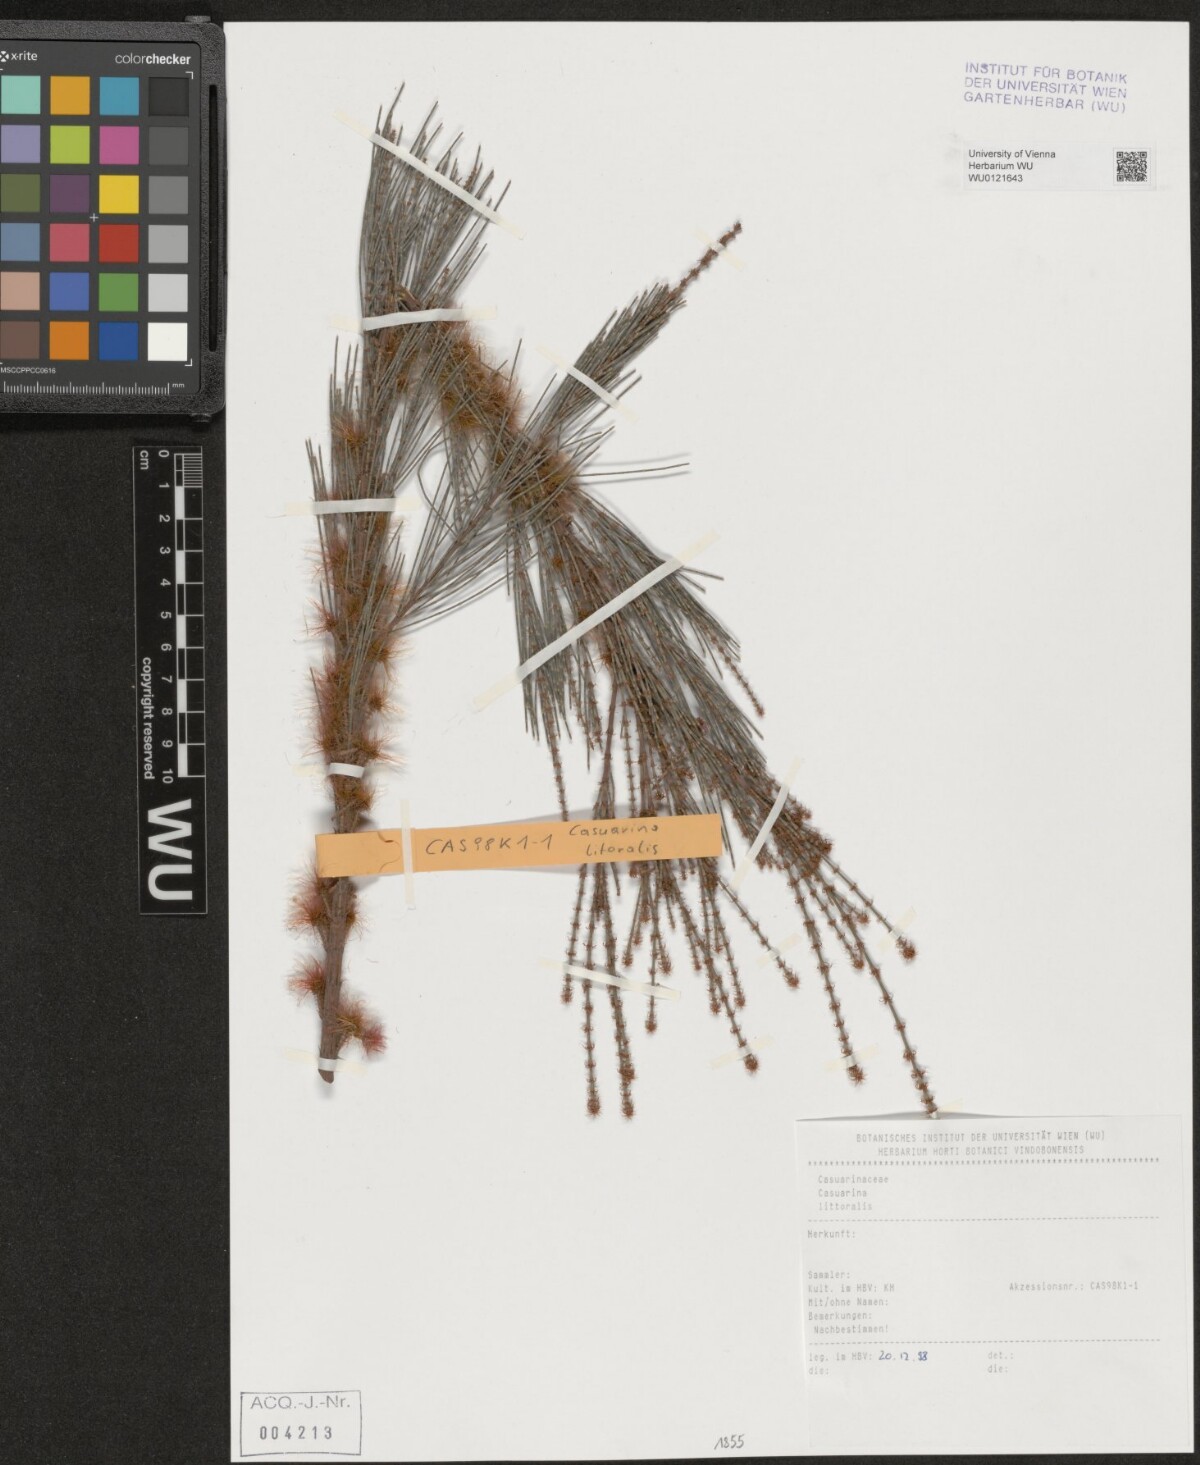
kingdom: Plantae
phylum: Tracheophyta
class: Magnoliopsida
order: Fagales
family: Casuarinaceae
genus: Allocasuarina
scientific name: Allocasuarina littoralis
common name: Black she-oak
